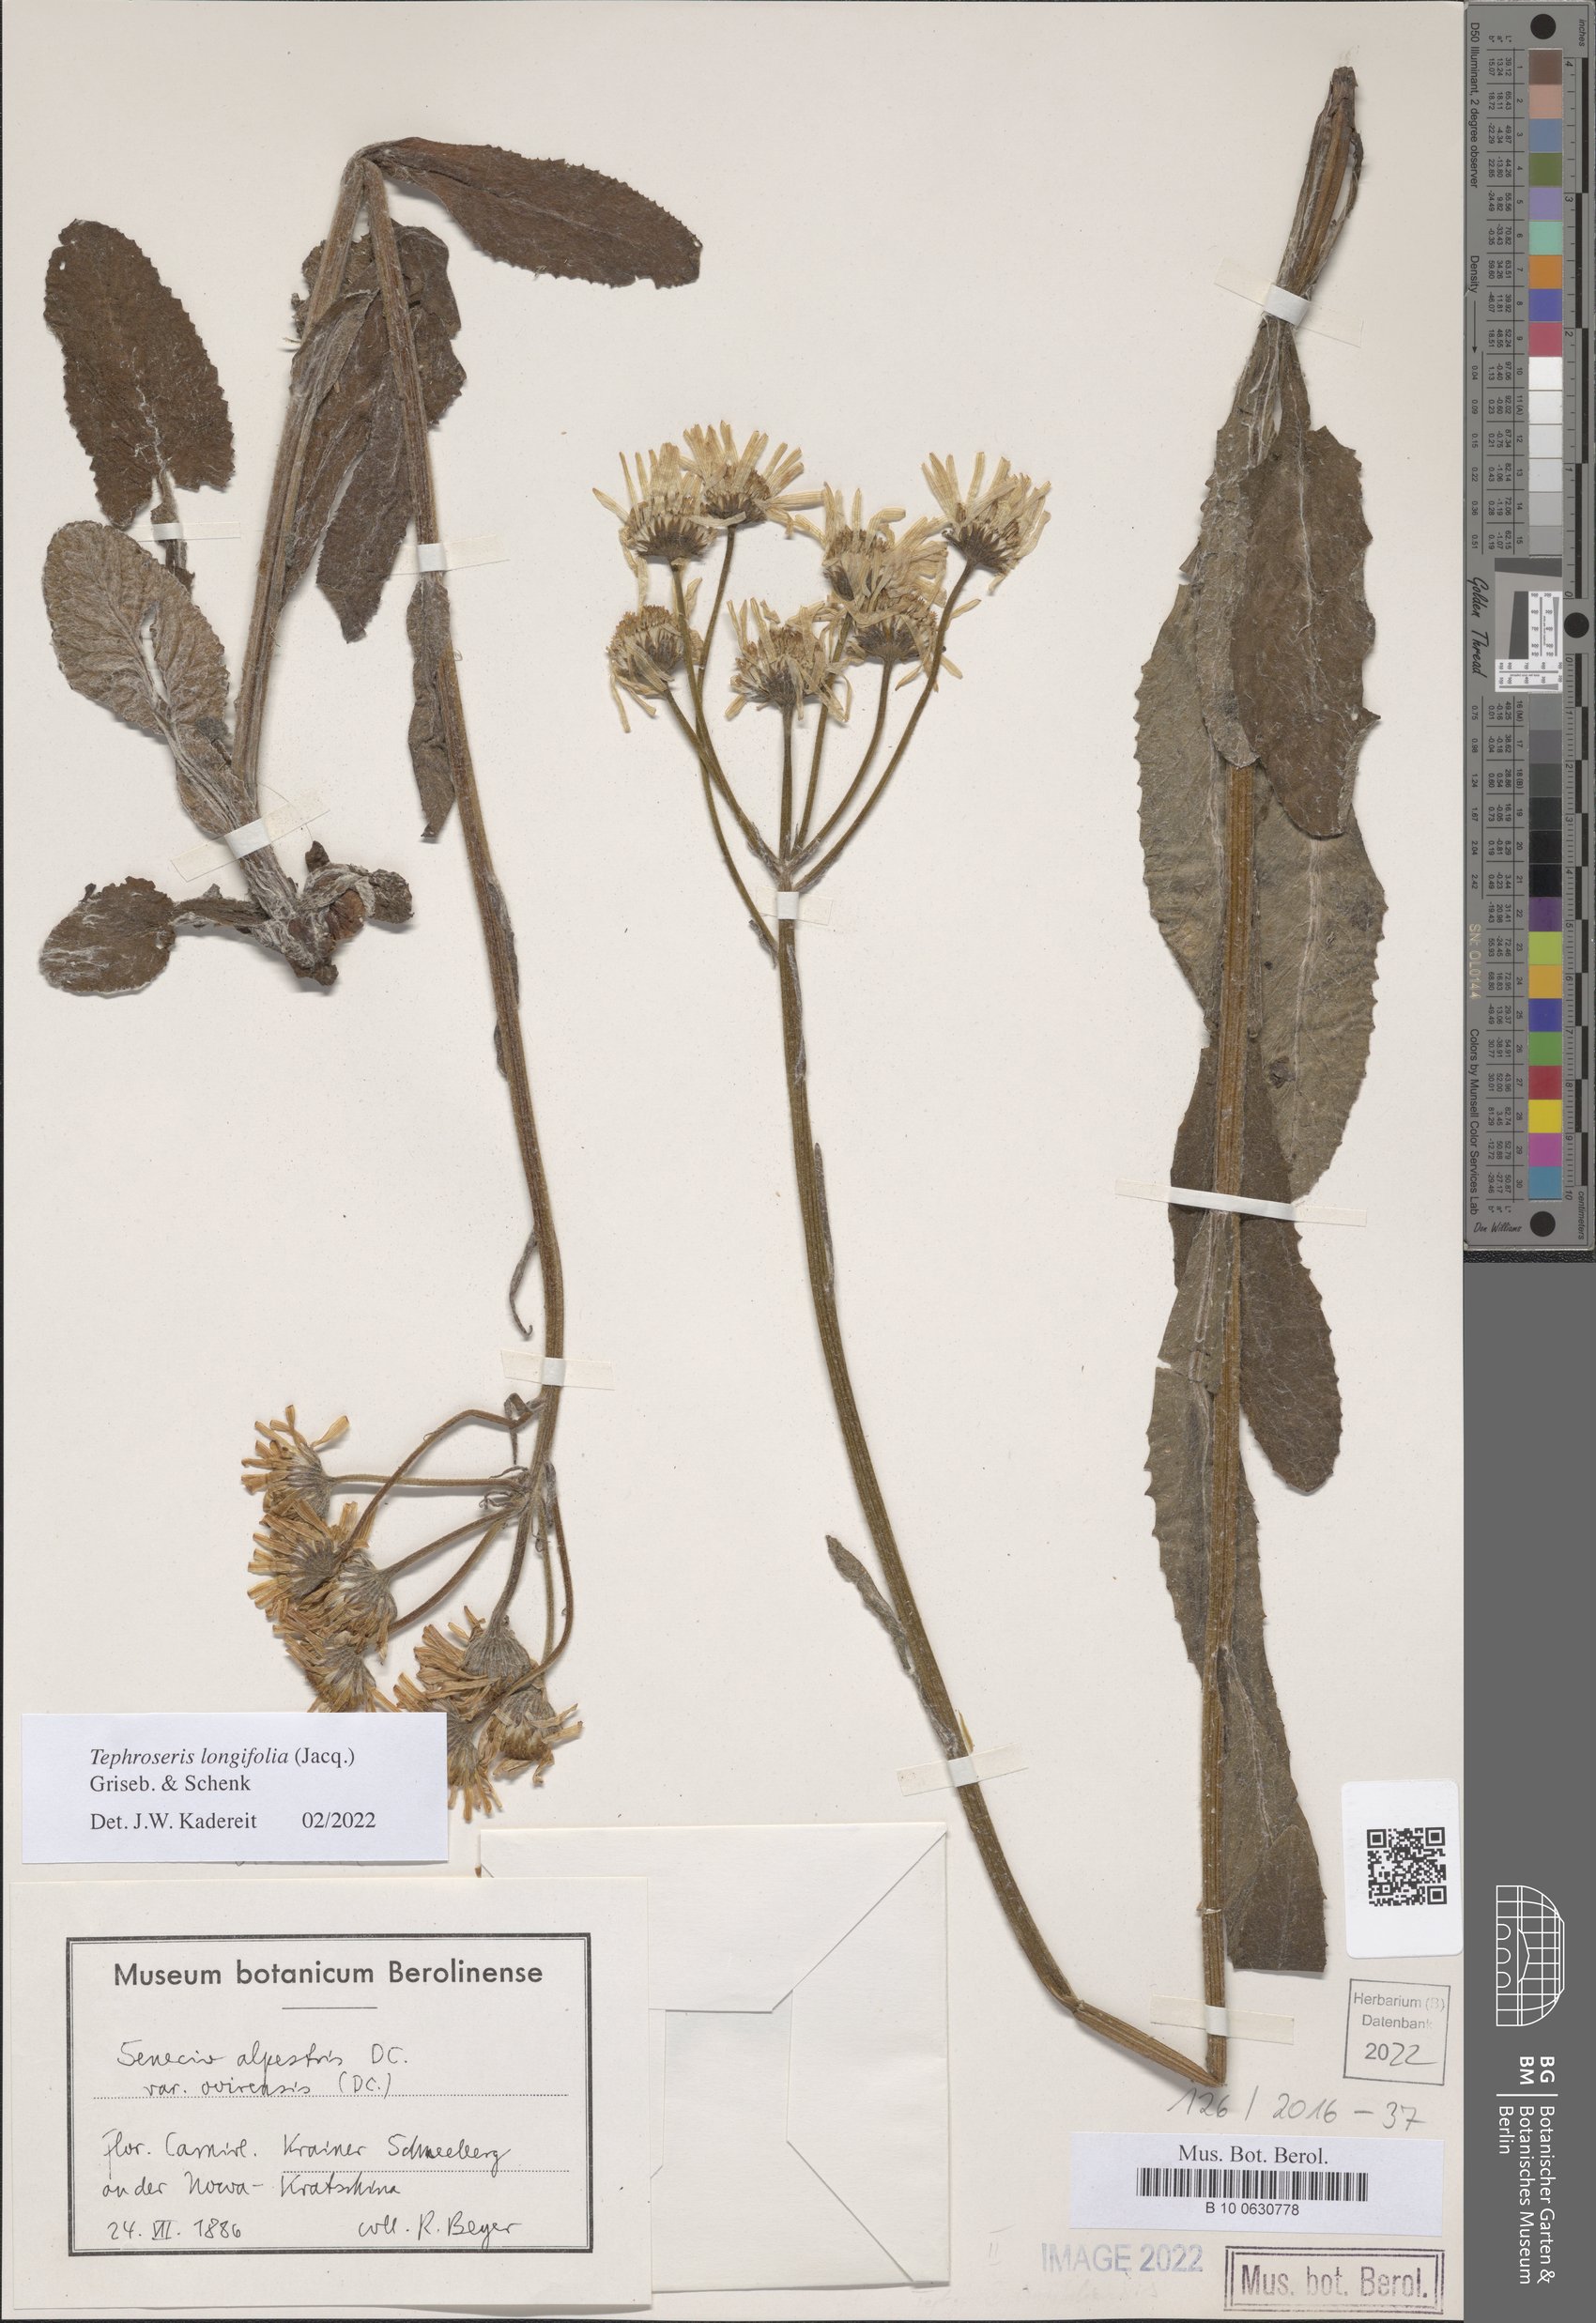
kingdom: Plantae
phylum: Tracheophyta
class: Magnoliopsida
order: Asterales
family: Asteraceae
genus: Tephroseris
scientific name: Tephroseris longifolia
